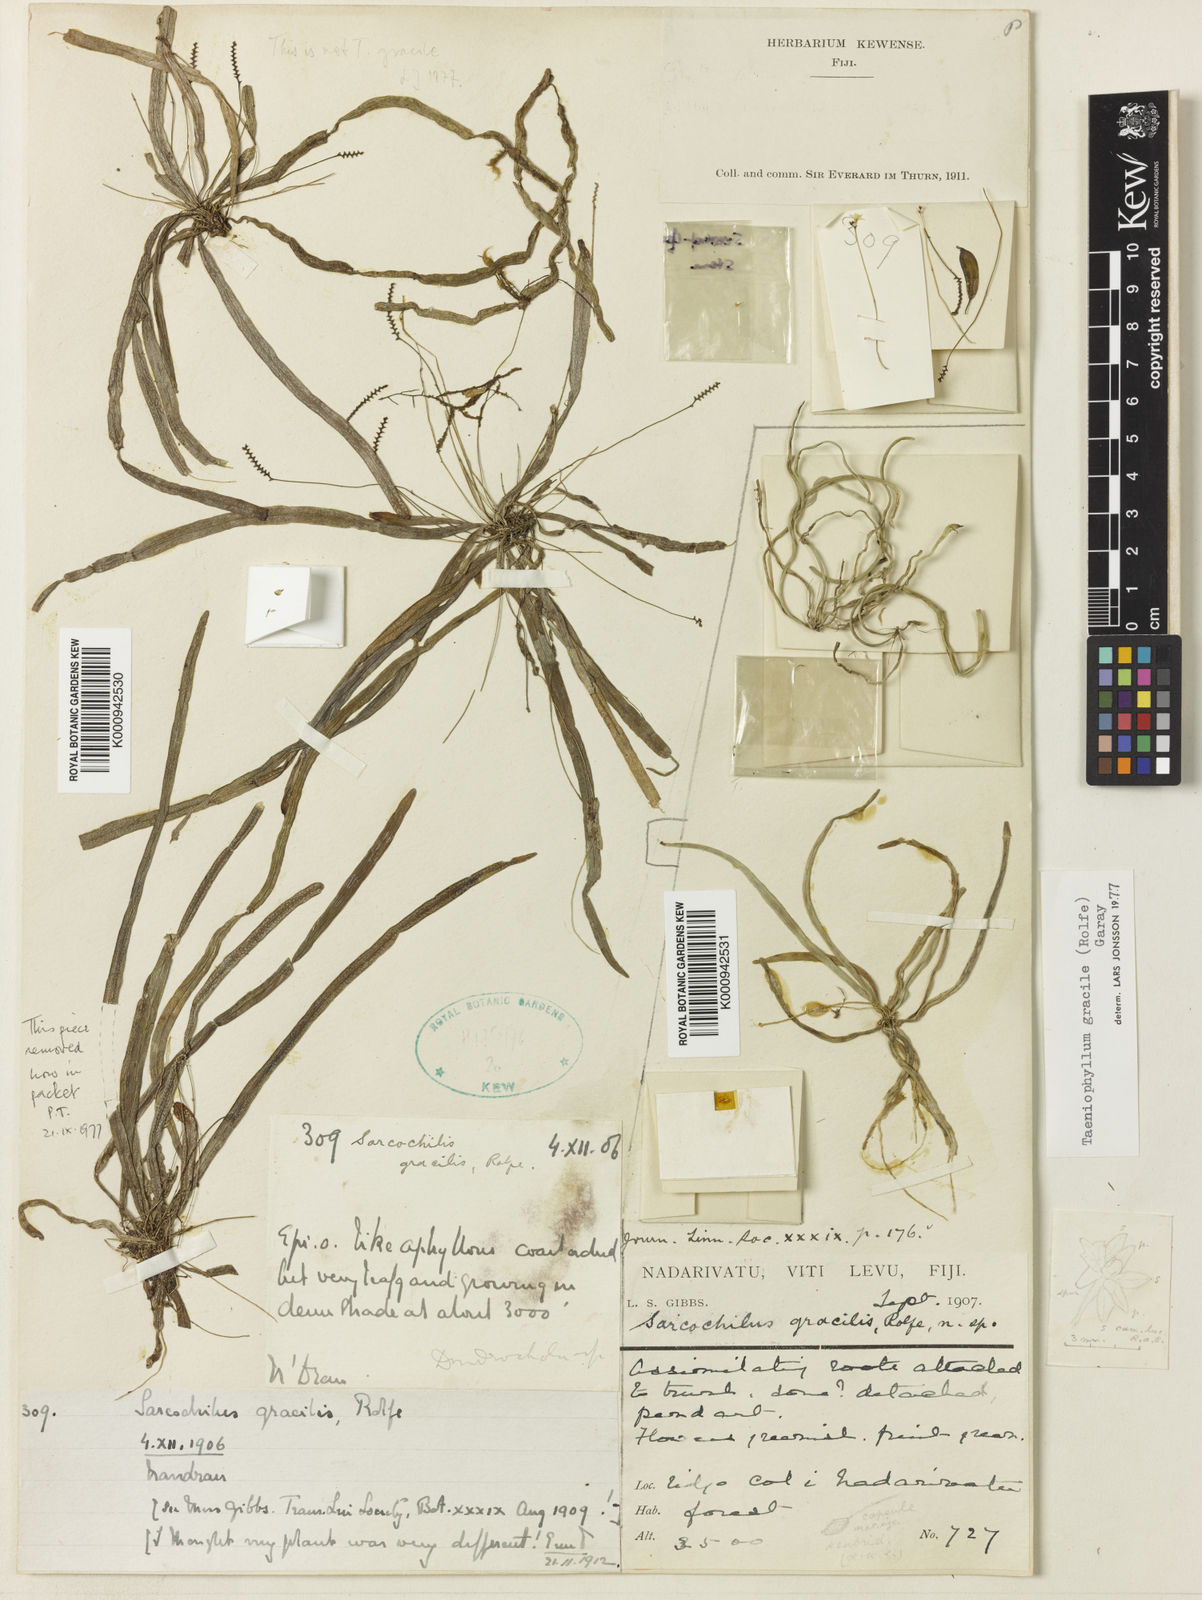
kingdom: Plantae
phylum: Tracheophyta
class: Liliopsida
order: Asparagales
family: Orchidaceae
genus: Taeniophyllum
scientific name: Taeniophyllum gracile
